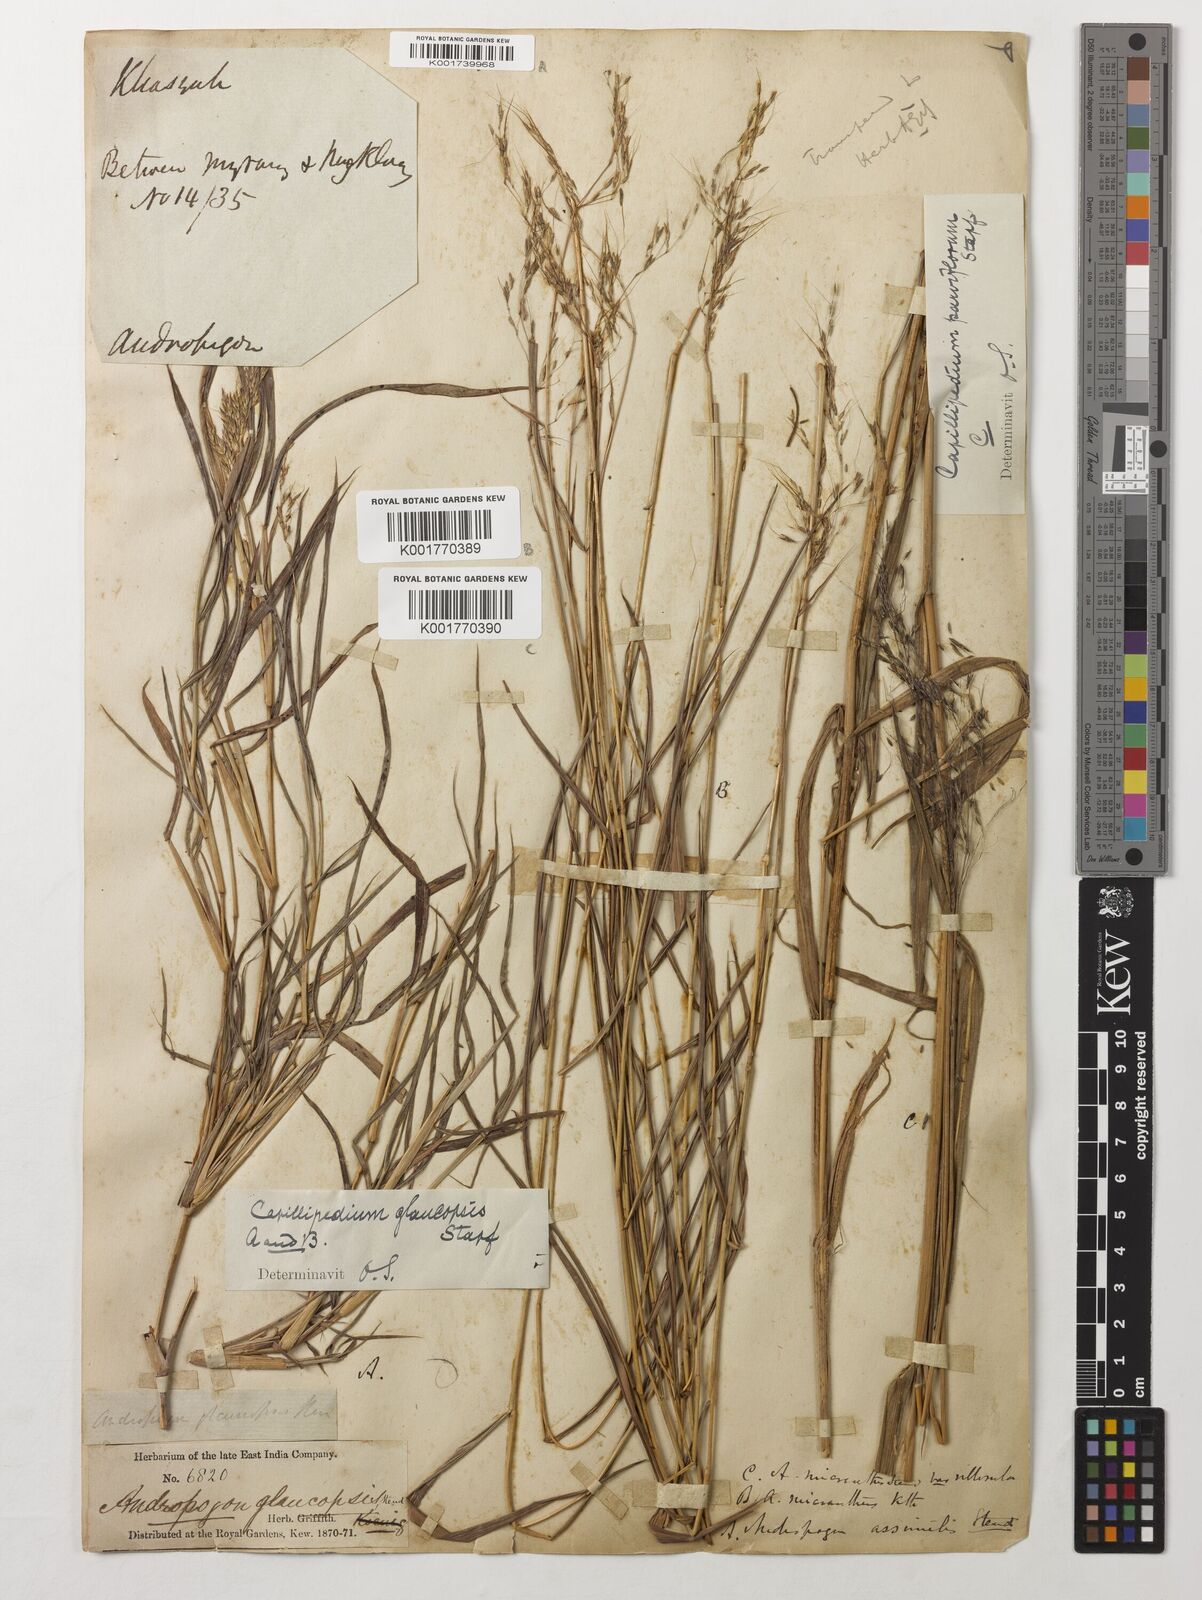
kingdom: Plantae
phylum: Tracheophyta
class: Liliopsida
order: Poales
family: Poaceae
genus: Capillipedium
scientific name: Capillipedium assimile
